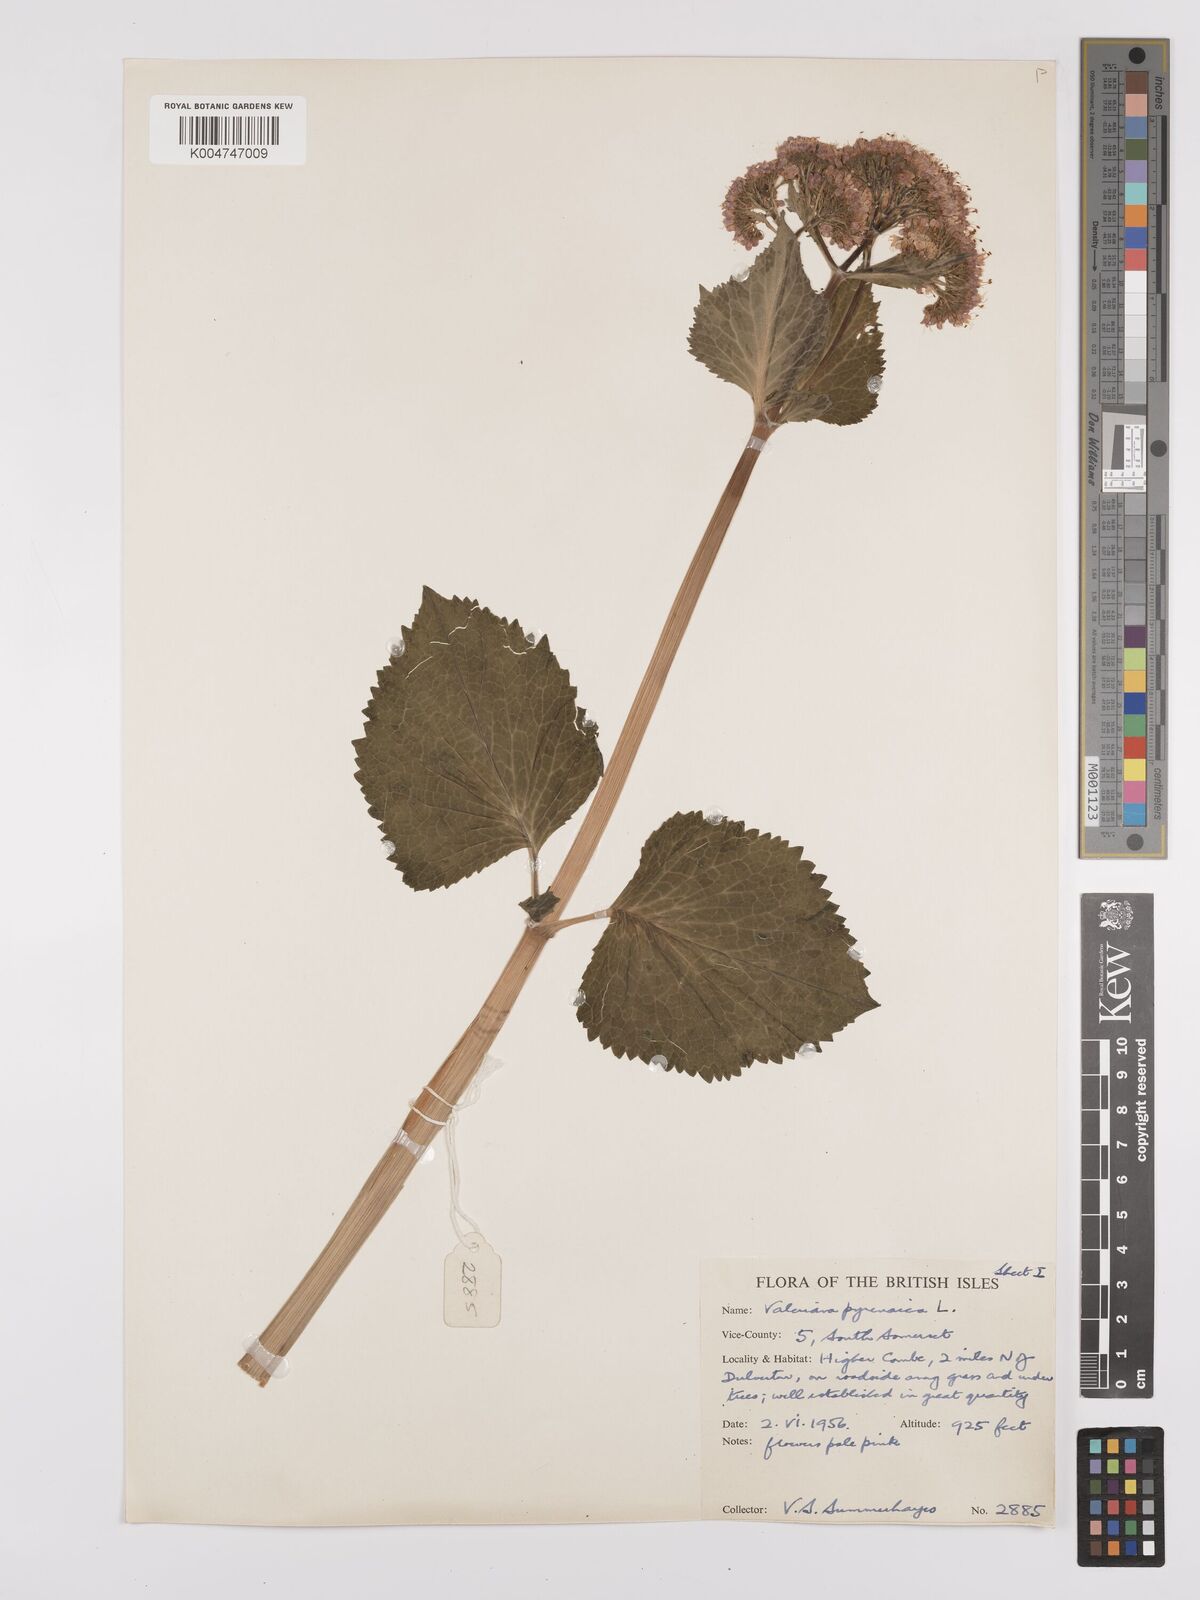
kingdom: Plantae
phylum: Tracheophyta
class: Magnoliopsida
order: Dipsacales
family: Caprifoliaceae
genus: Valeriana
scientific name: Valeriana pyrenaica
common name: Pyrenean valerian
